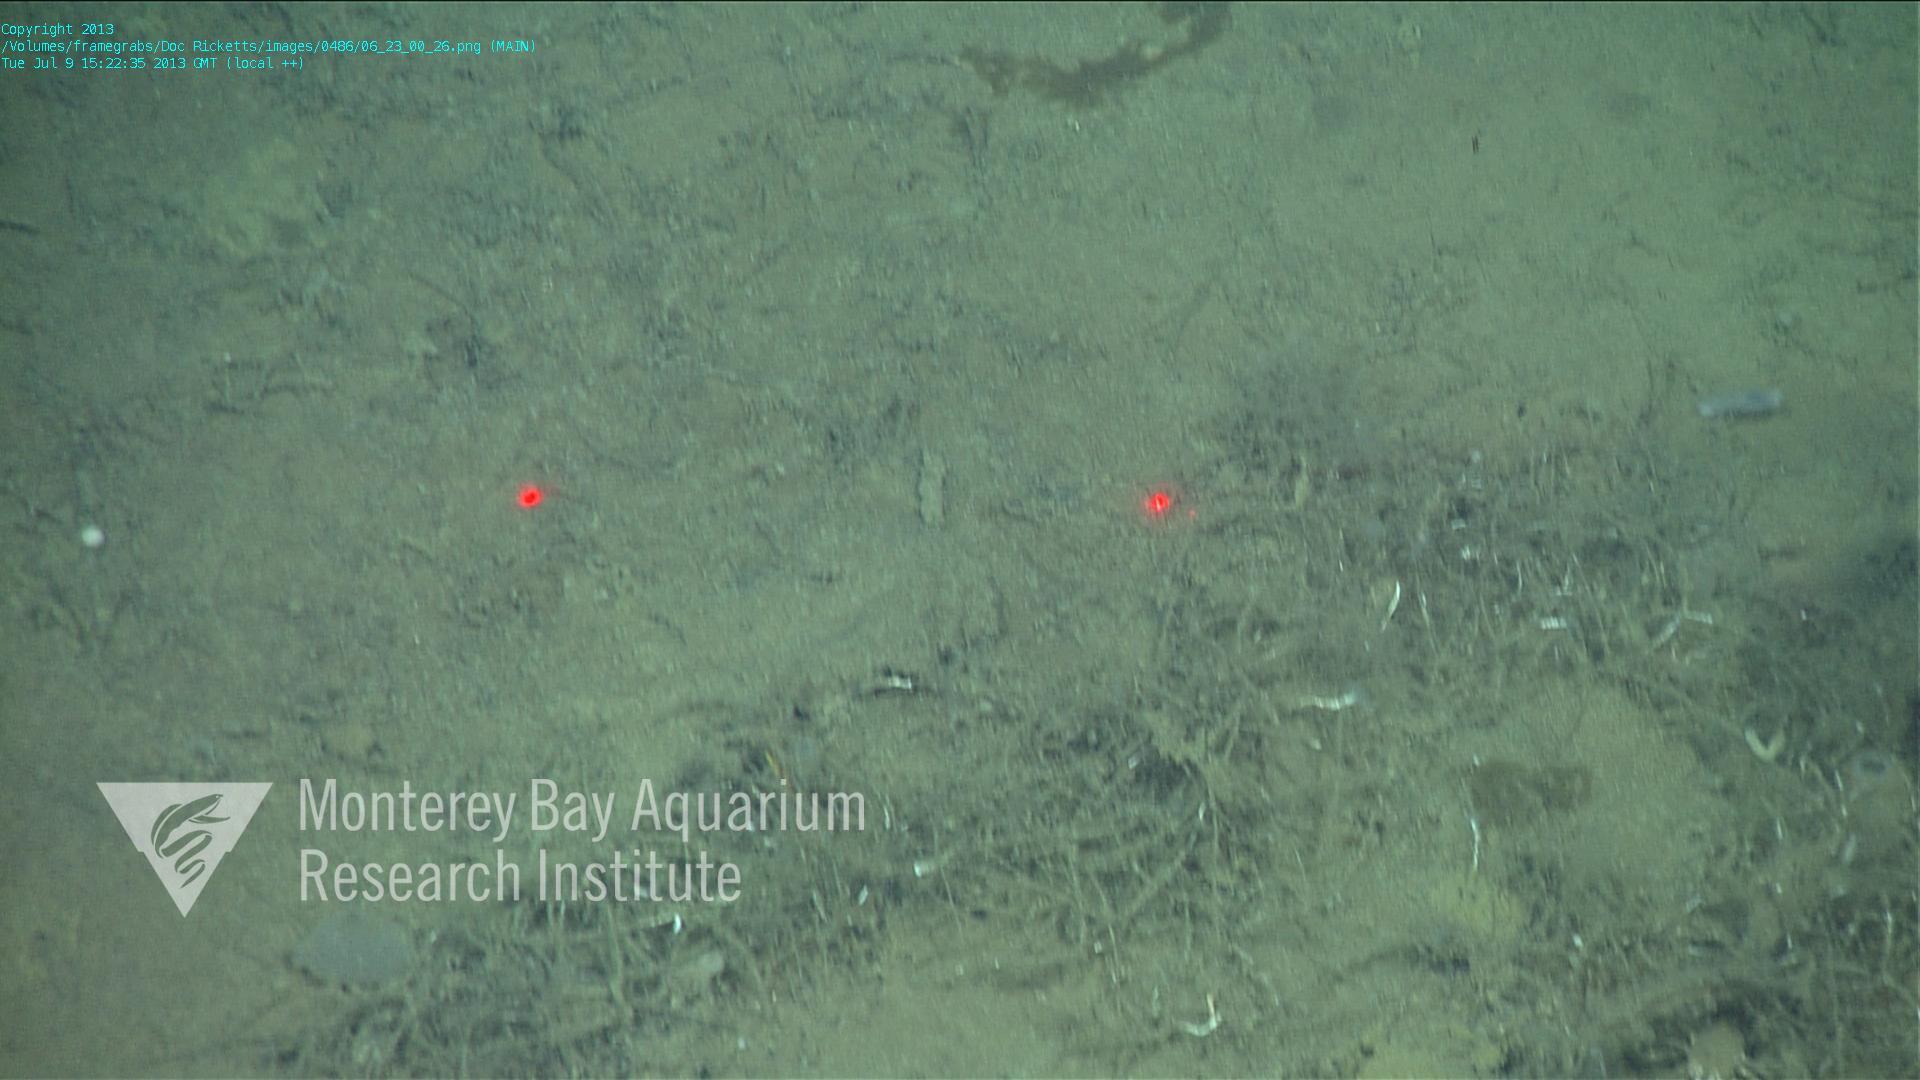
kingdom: Animalia
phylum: Porifera
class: Demospongiae
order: Poecilosclerida
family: Cladorhizidae
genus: Cladorhiza
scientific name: Cladorhiza
